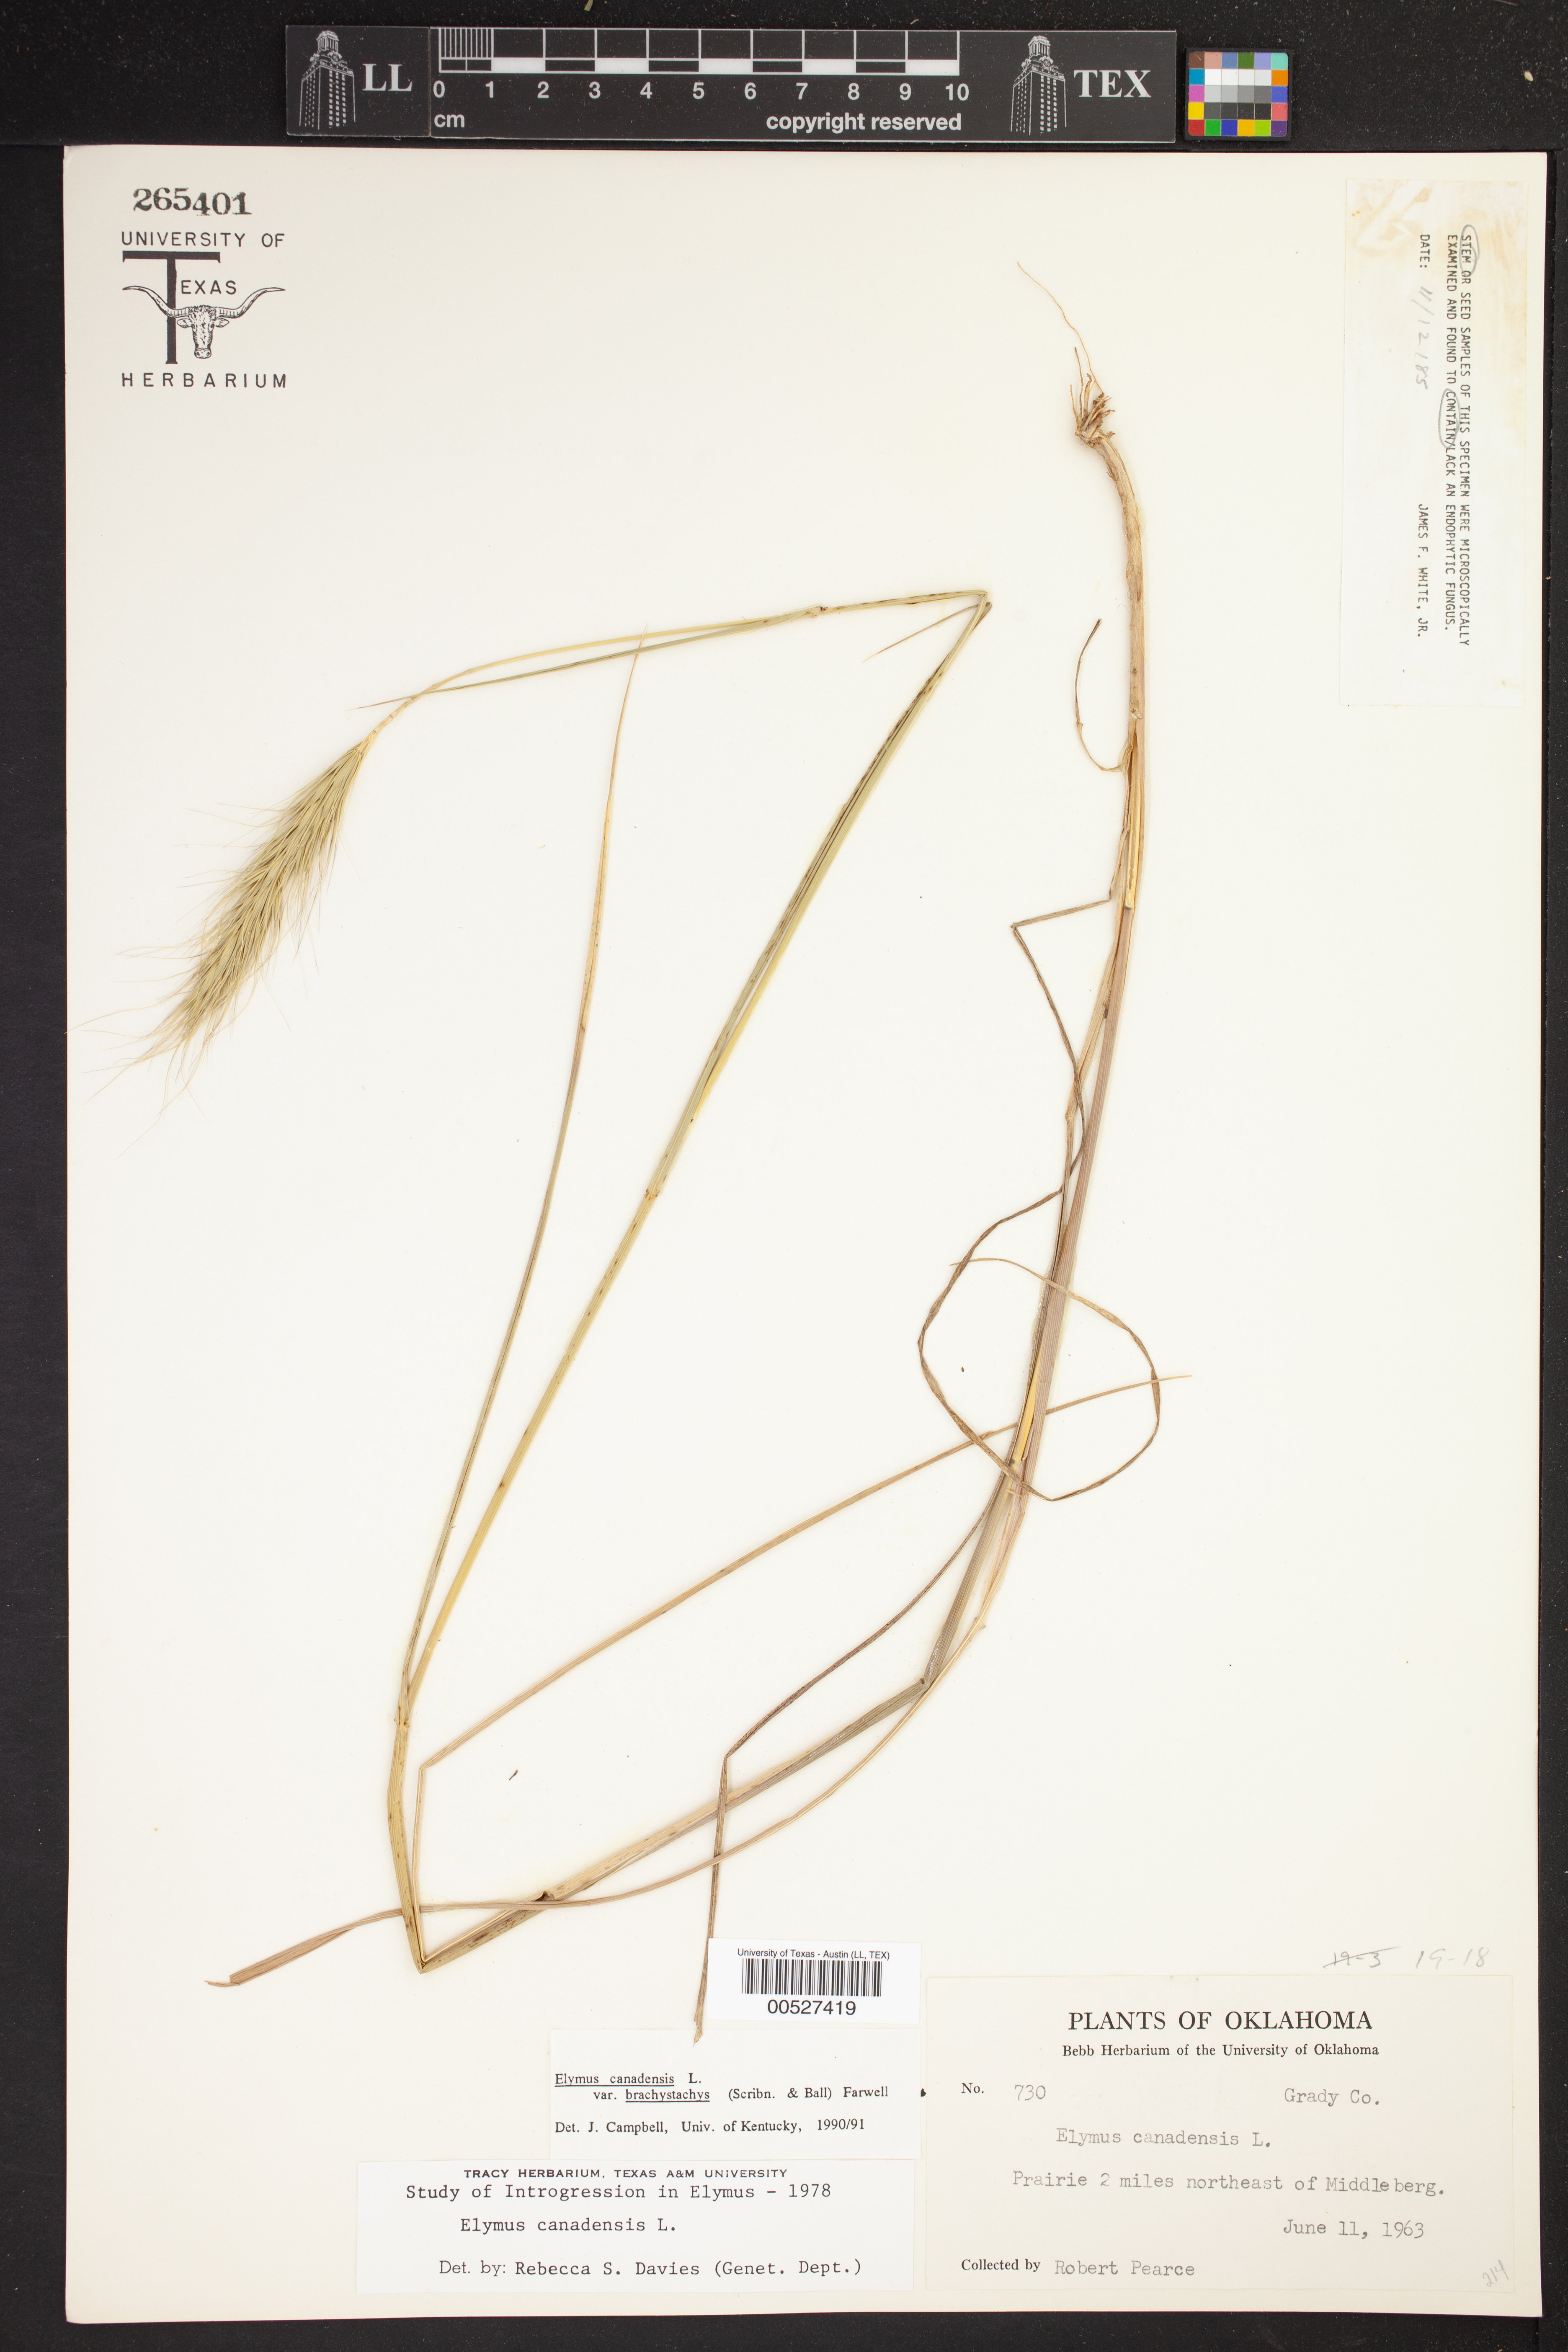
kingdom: Plantae
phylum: Tracheophyta
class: Liliopsida
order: Poales
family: Poaceae
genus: Elymus
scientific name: Elymus canadensis
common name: Canada wild rye
